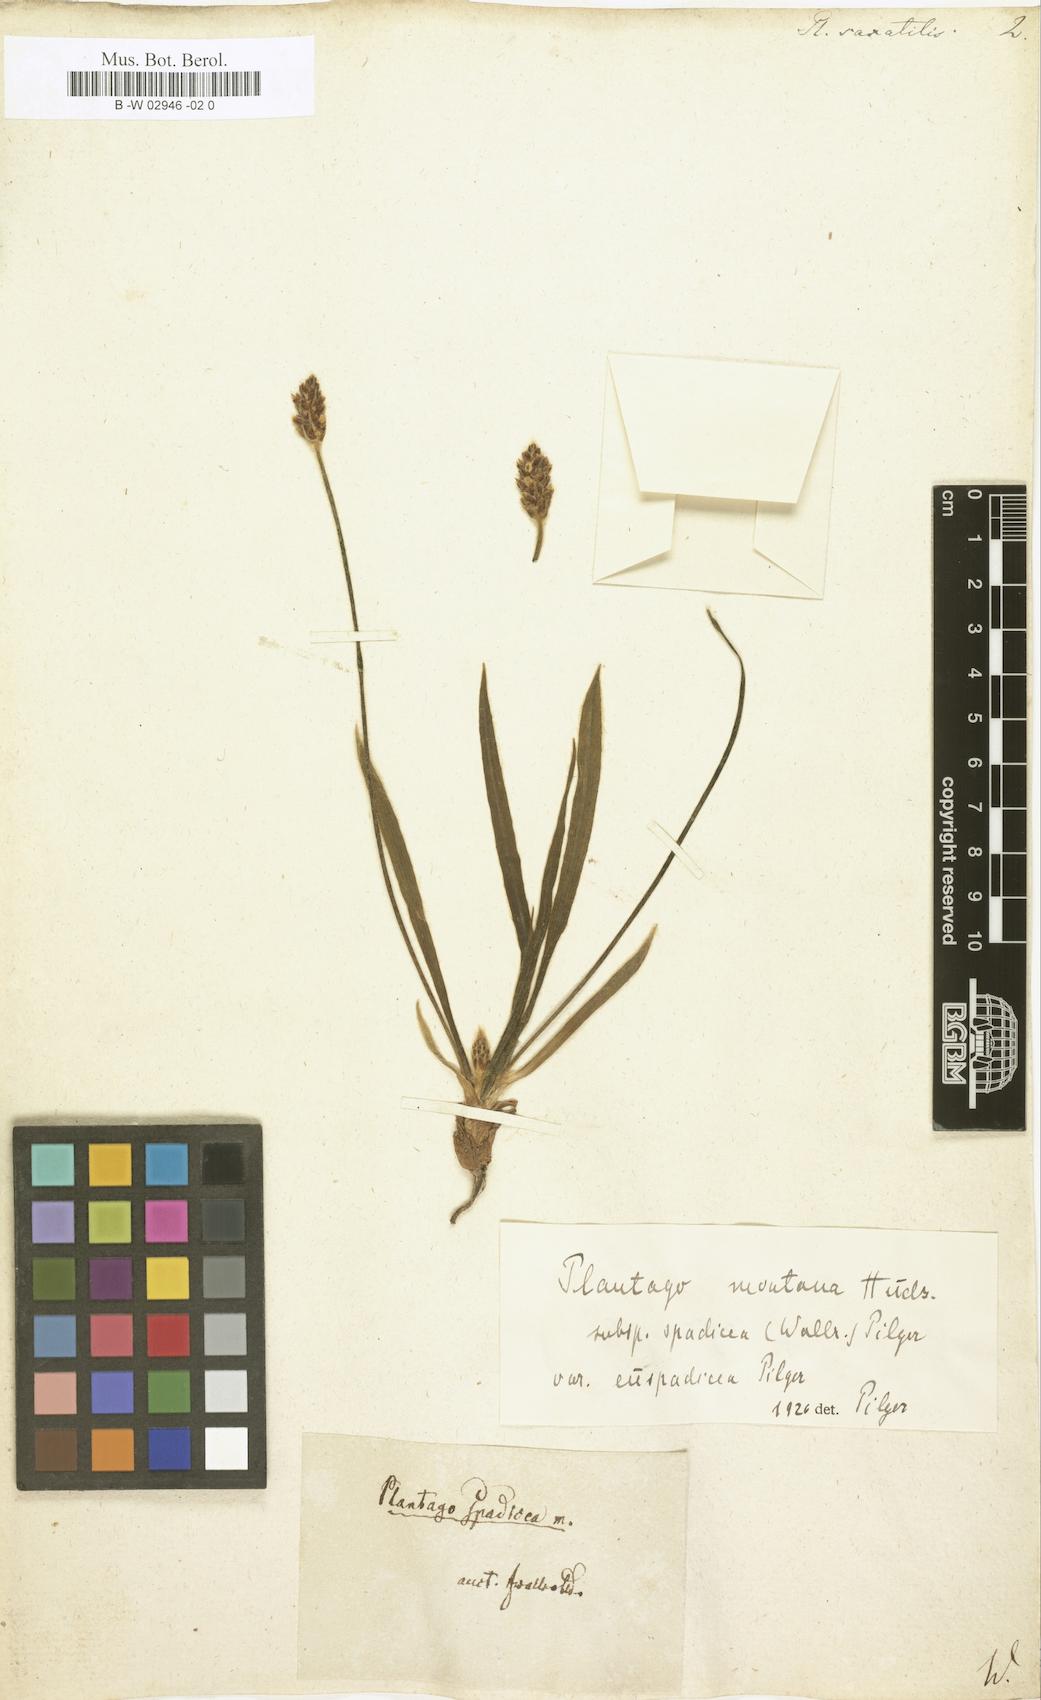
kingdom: Plantae
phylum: Tracheophyta
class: Magnoliopsida
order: Lamiales
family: Plantaginaceae
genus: Plantago
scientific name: Plantago atrata
